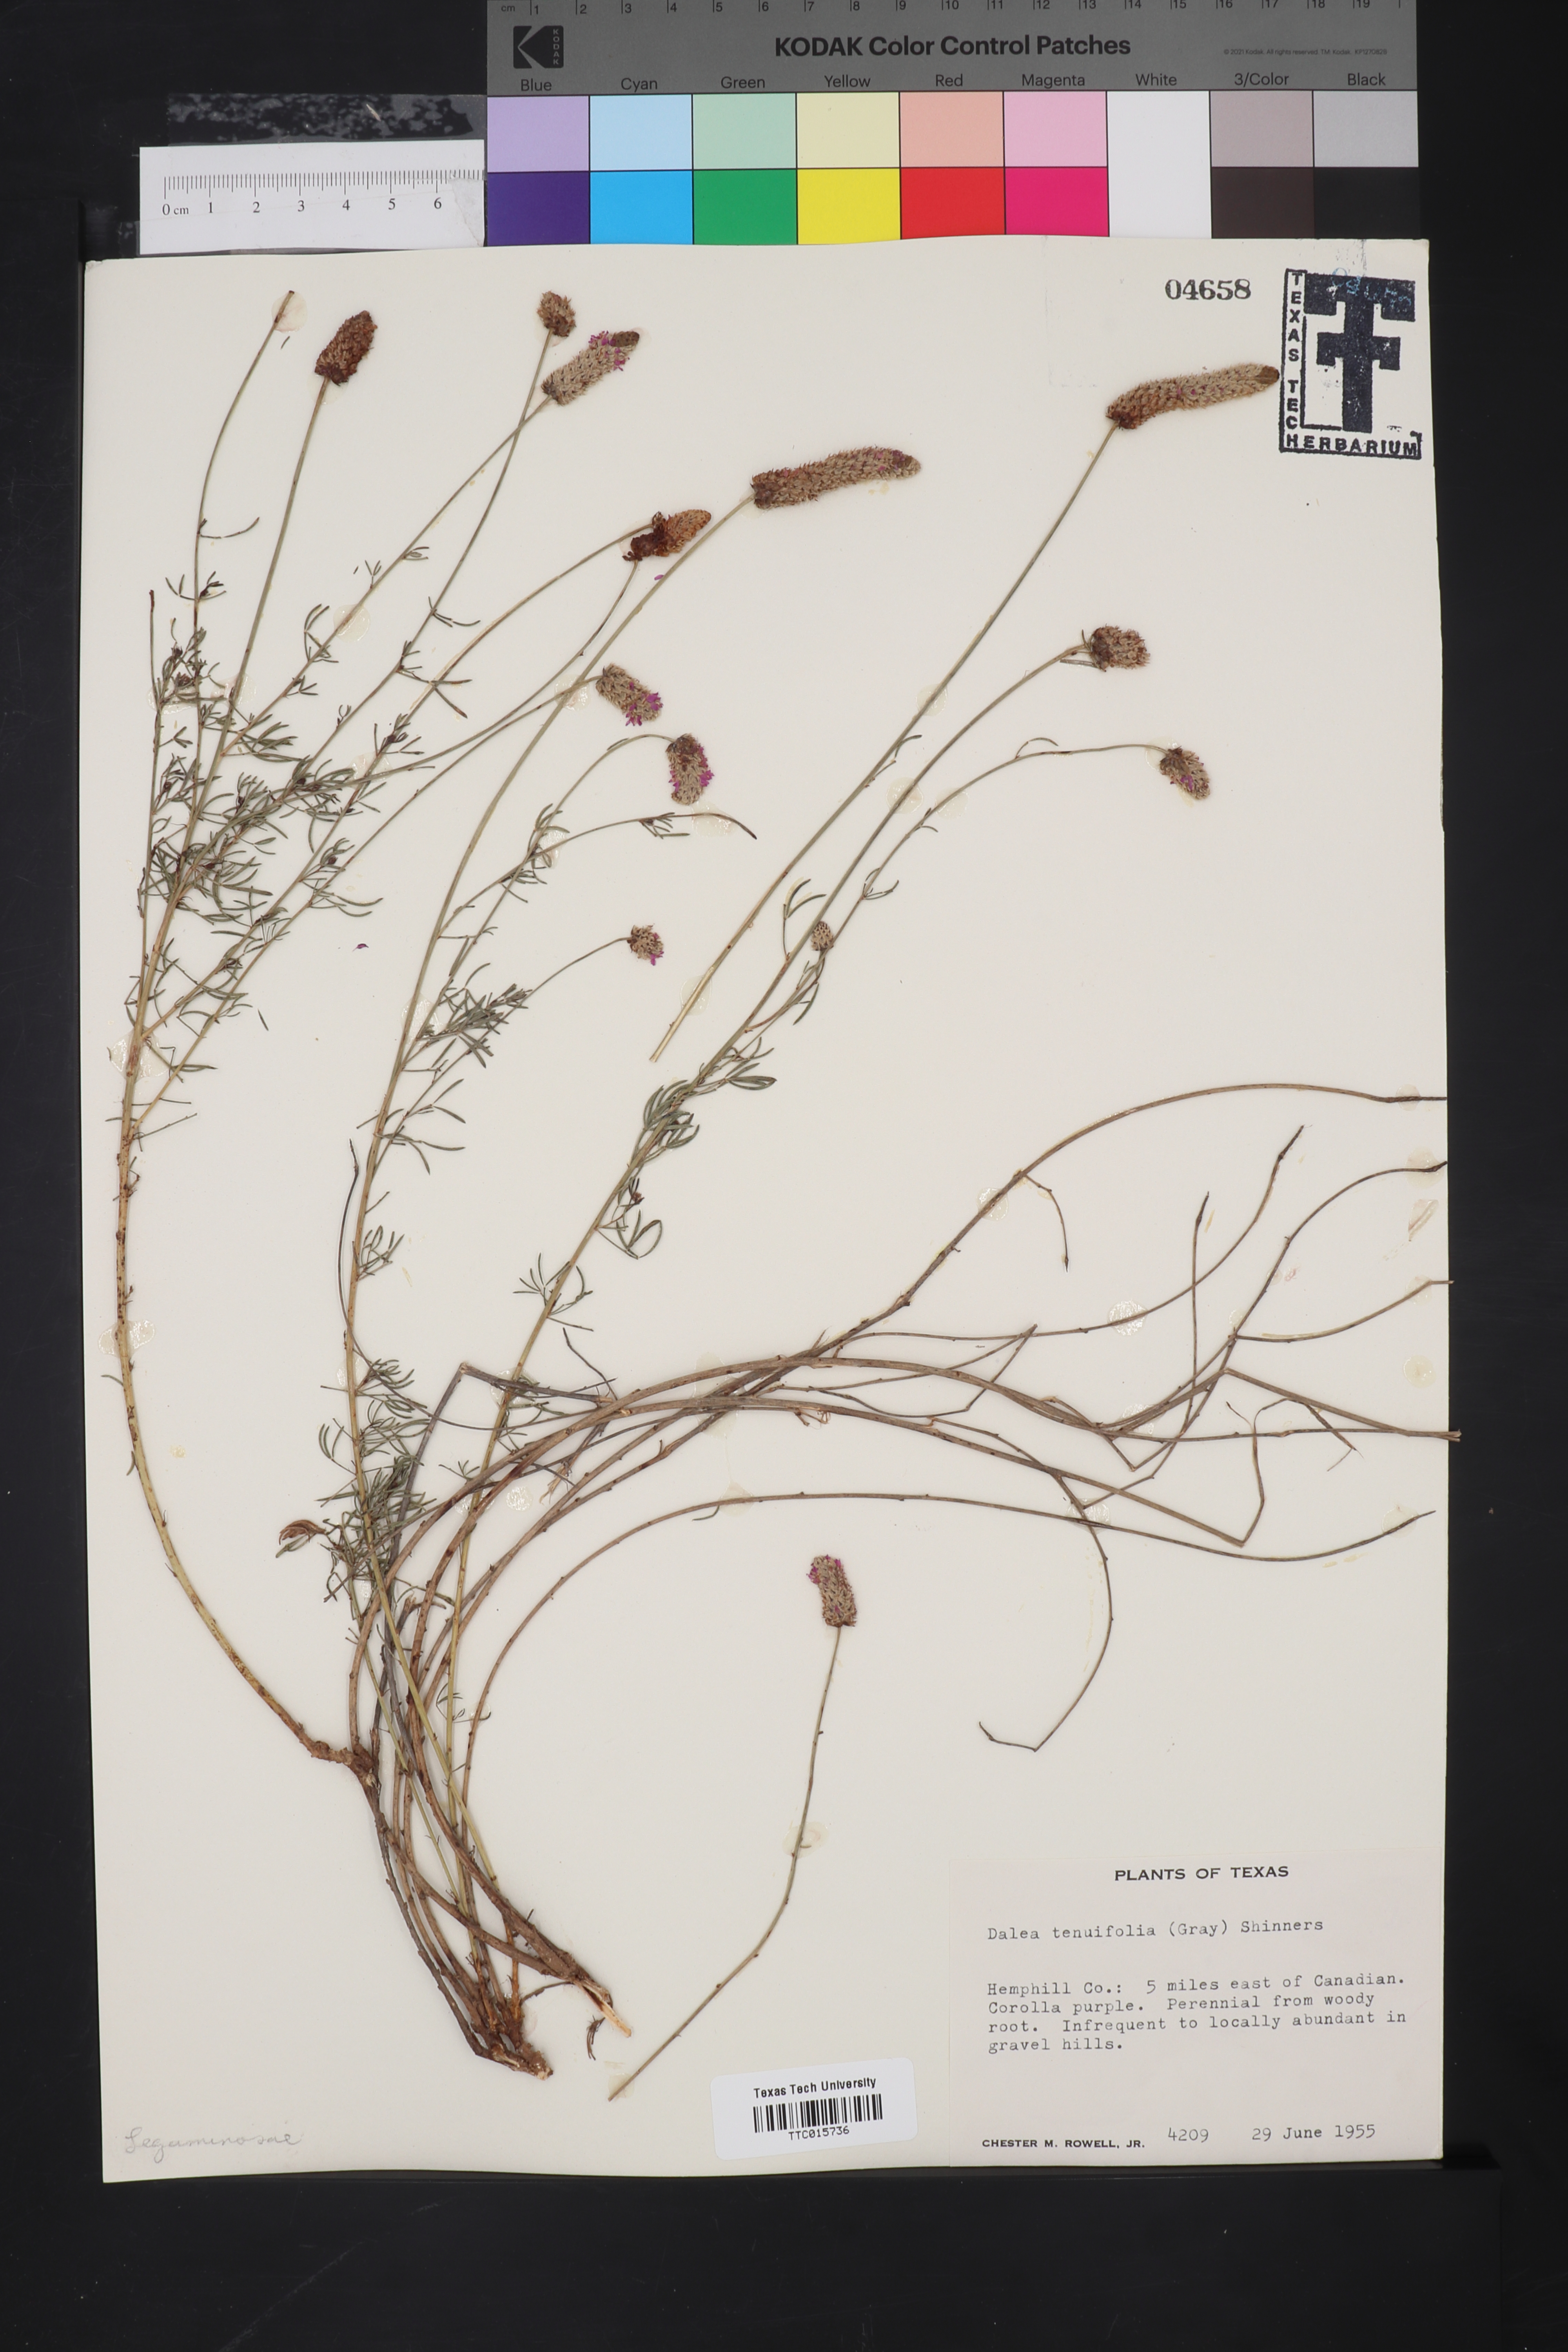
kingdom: Plantae
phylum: Tracheophyta
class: Magnoliopsida
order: Fabales
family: Fabaceae
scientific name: Fabaceae
